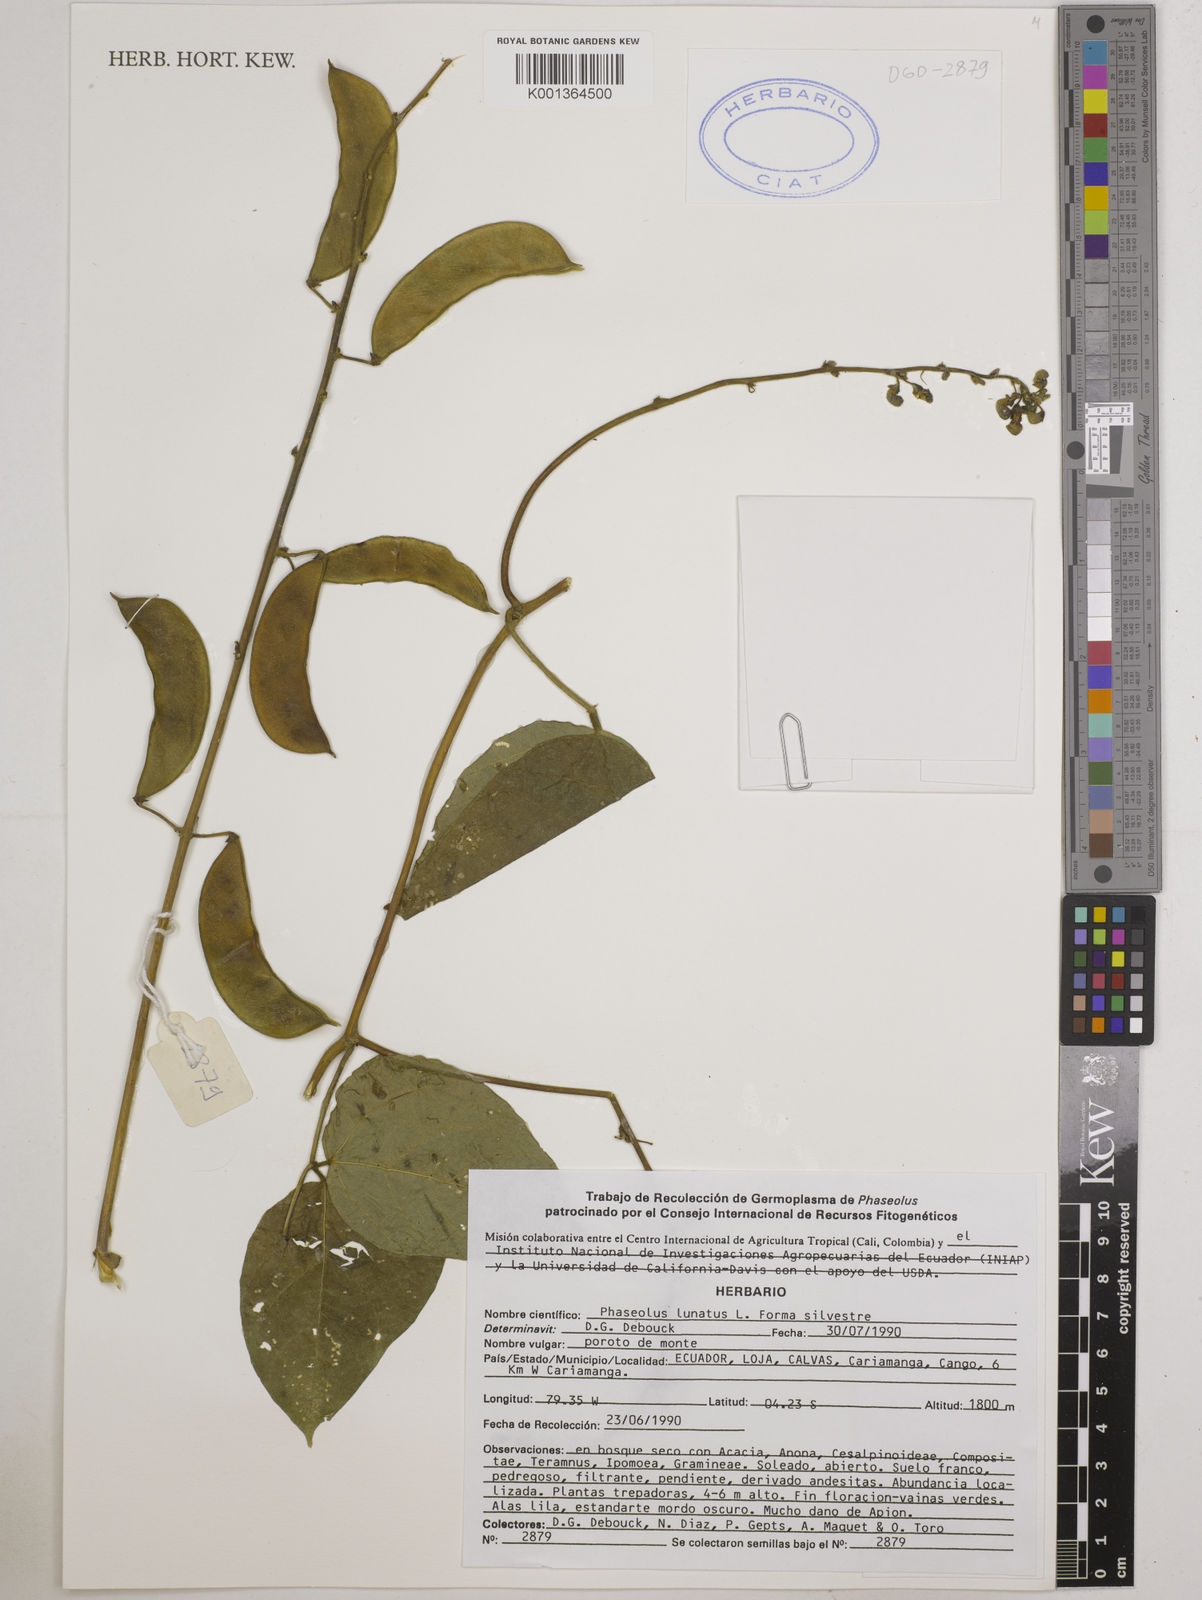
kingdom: Plantae
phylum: Tracheophyta
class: Magnoliopsida
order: Fabales
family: Fabaceae
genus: Phaseolus
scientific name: Phaseolus
